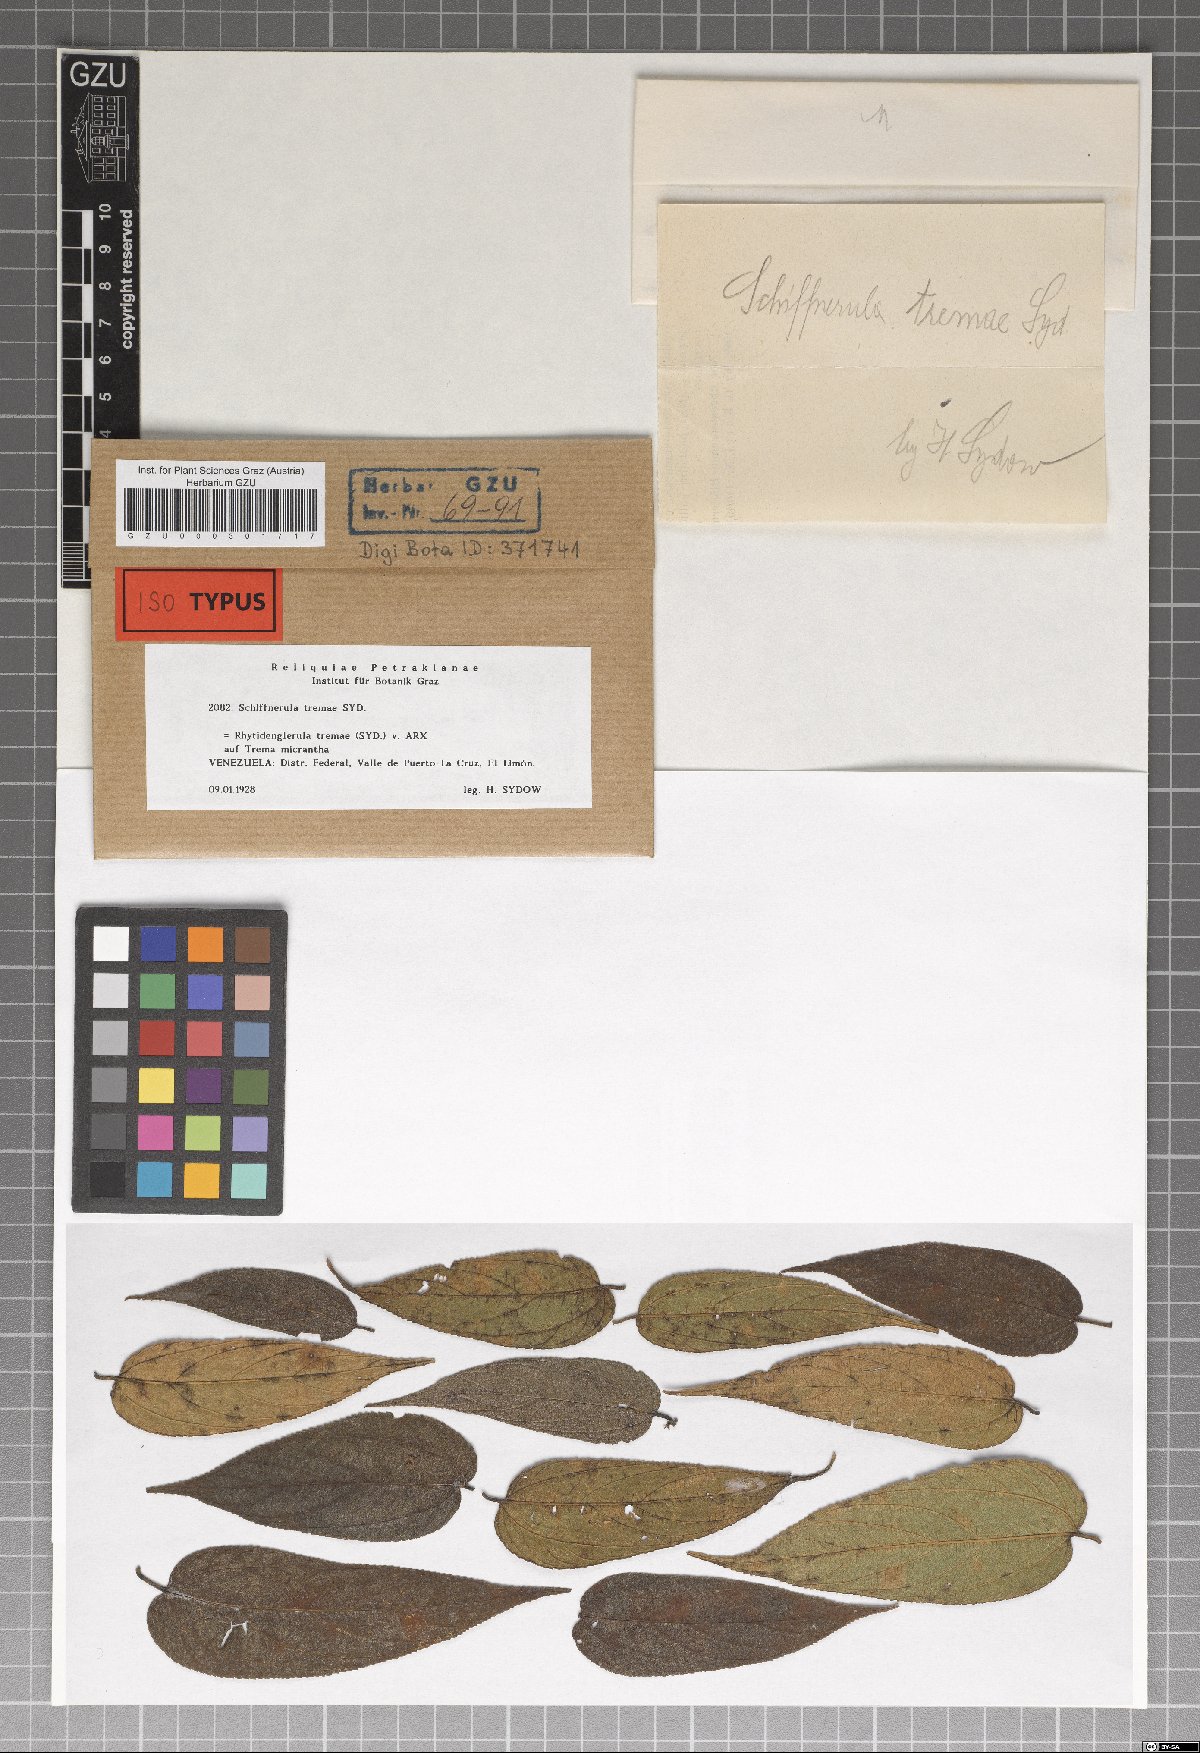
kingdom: Fungi
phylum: Ascomycota
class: Dothideomycetes
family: Englerulaceae
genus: Schiffnerula
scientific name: Schiffnerula
